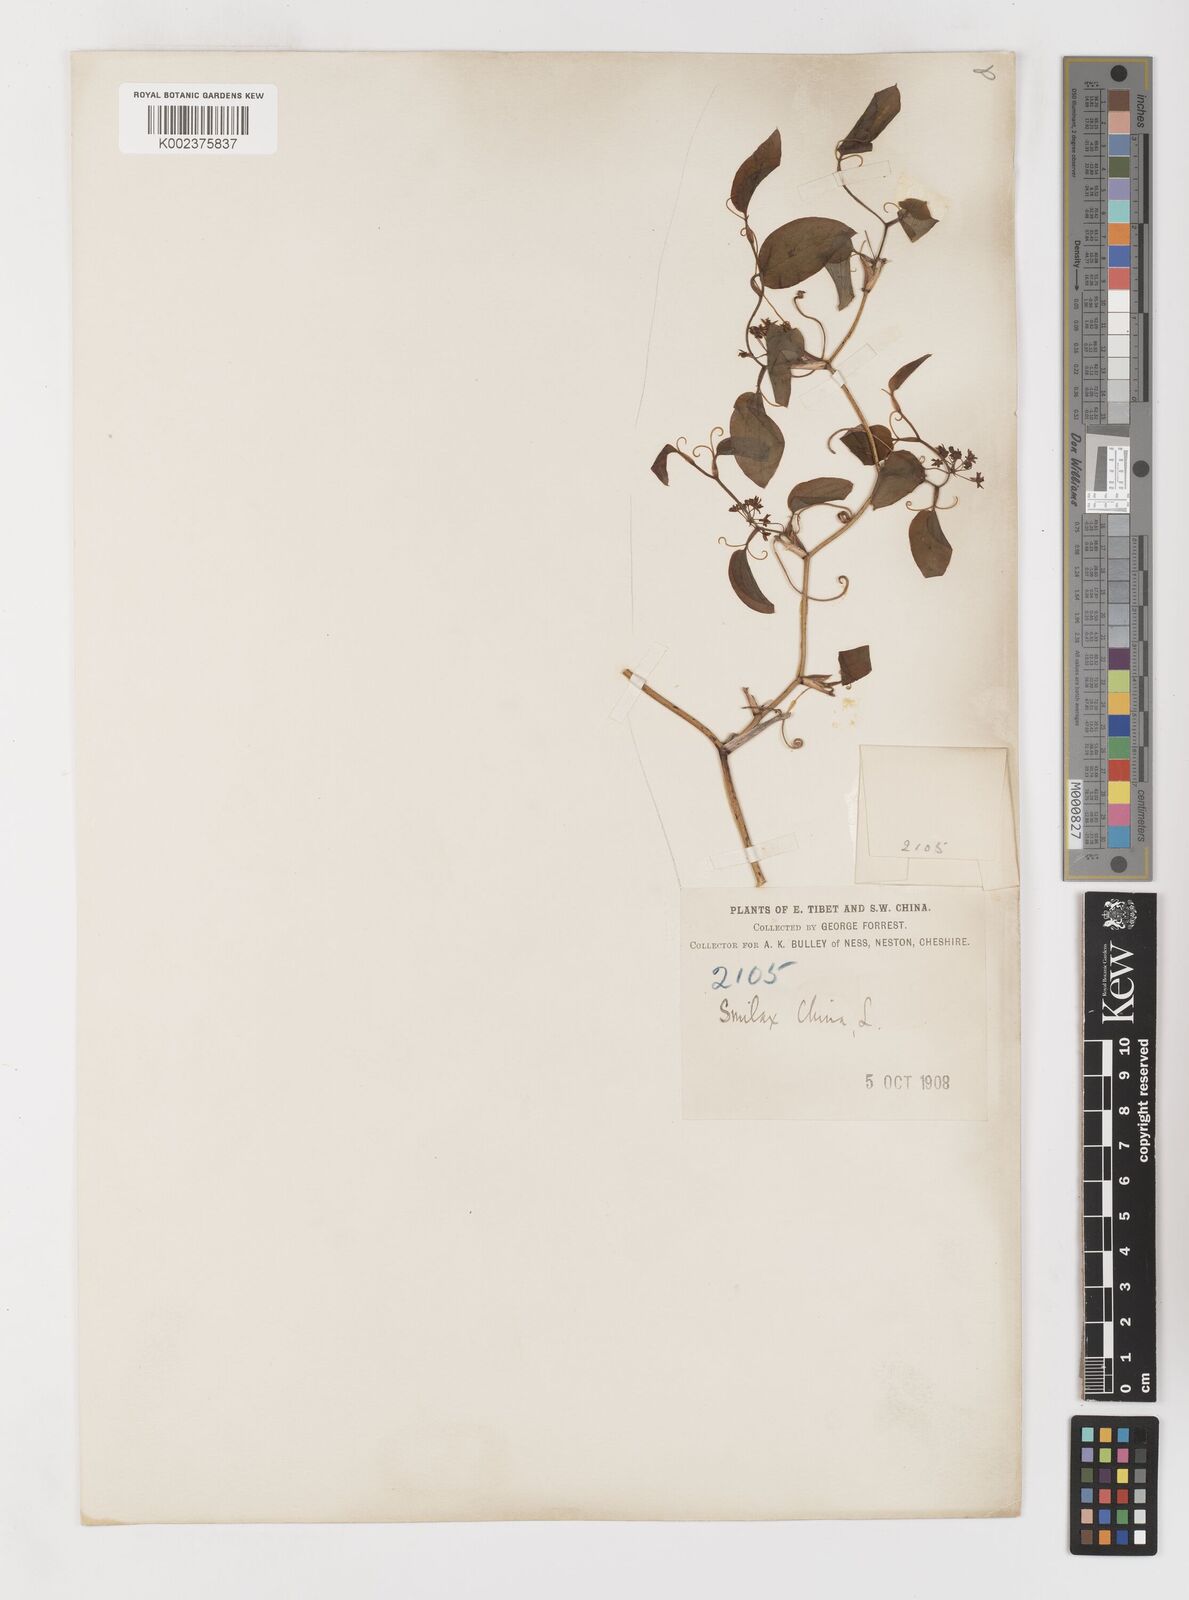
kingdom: Plantae
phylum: Tracheophyta
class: Liliopsida
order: Liliales
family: Smilacaceae
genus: Smilax
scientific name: Smilax china
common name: Chinaroot
